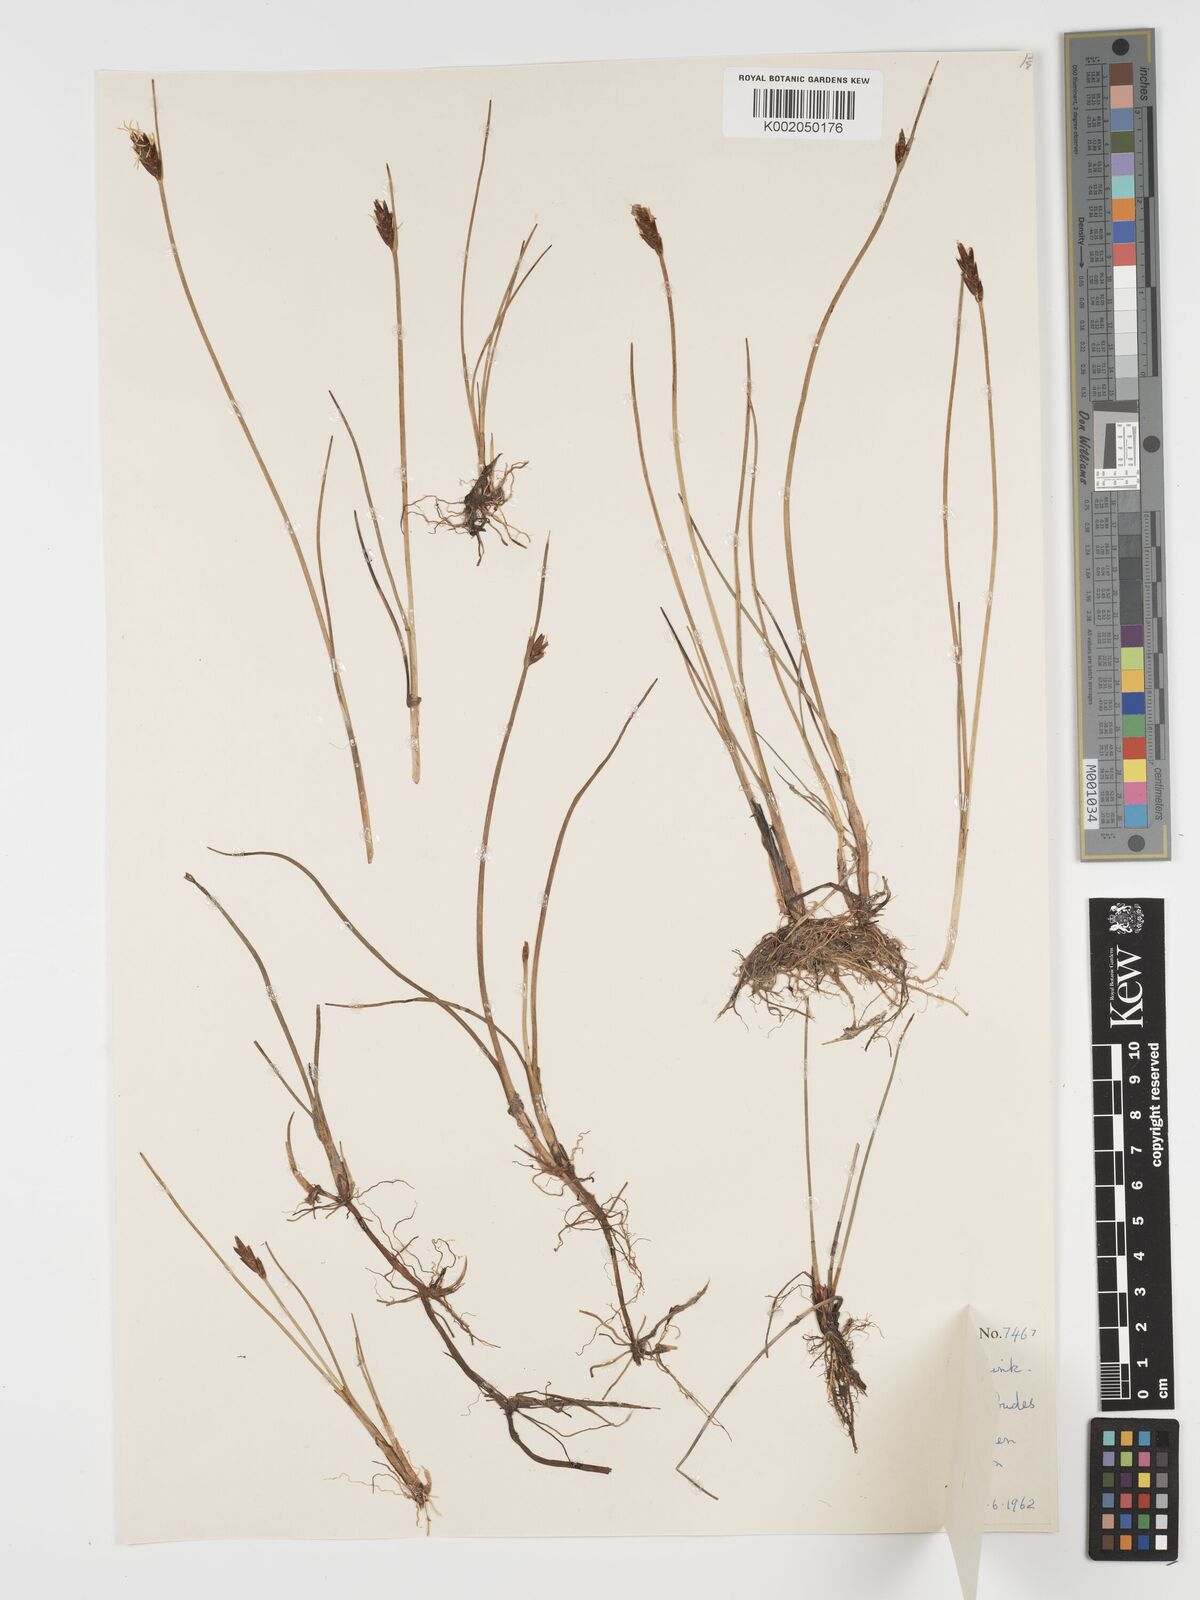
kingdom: Plantae
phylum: Tracheophyta
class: Liliopsida
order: Poales
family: Cyperaceae
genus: Blysmus
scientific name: Blysmus rufus
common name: Saltmarsh flat-sedge
